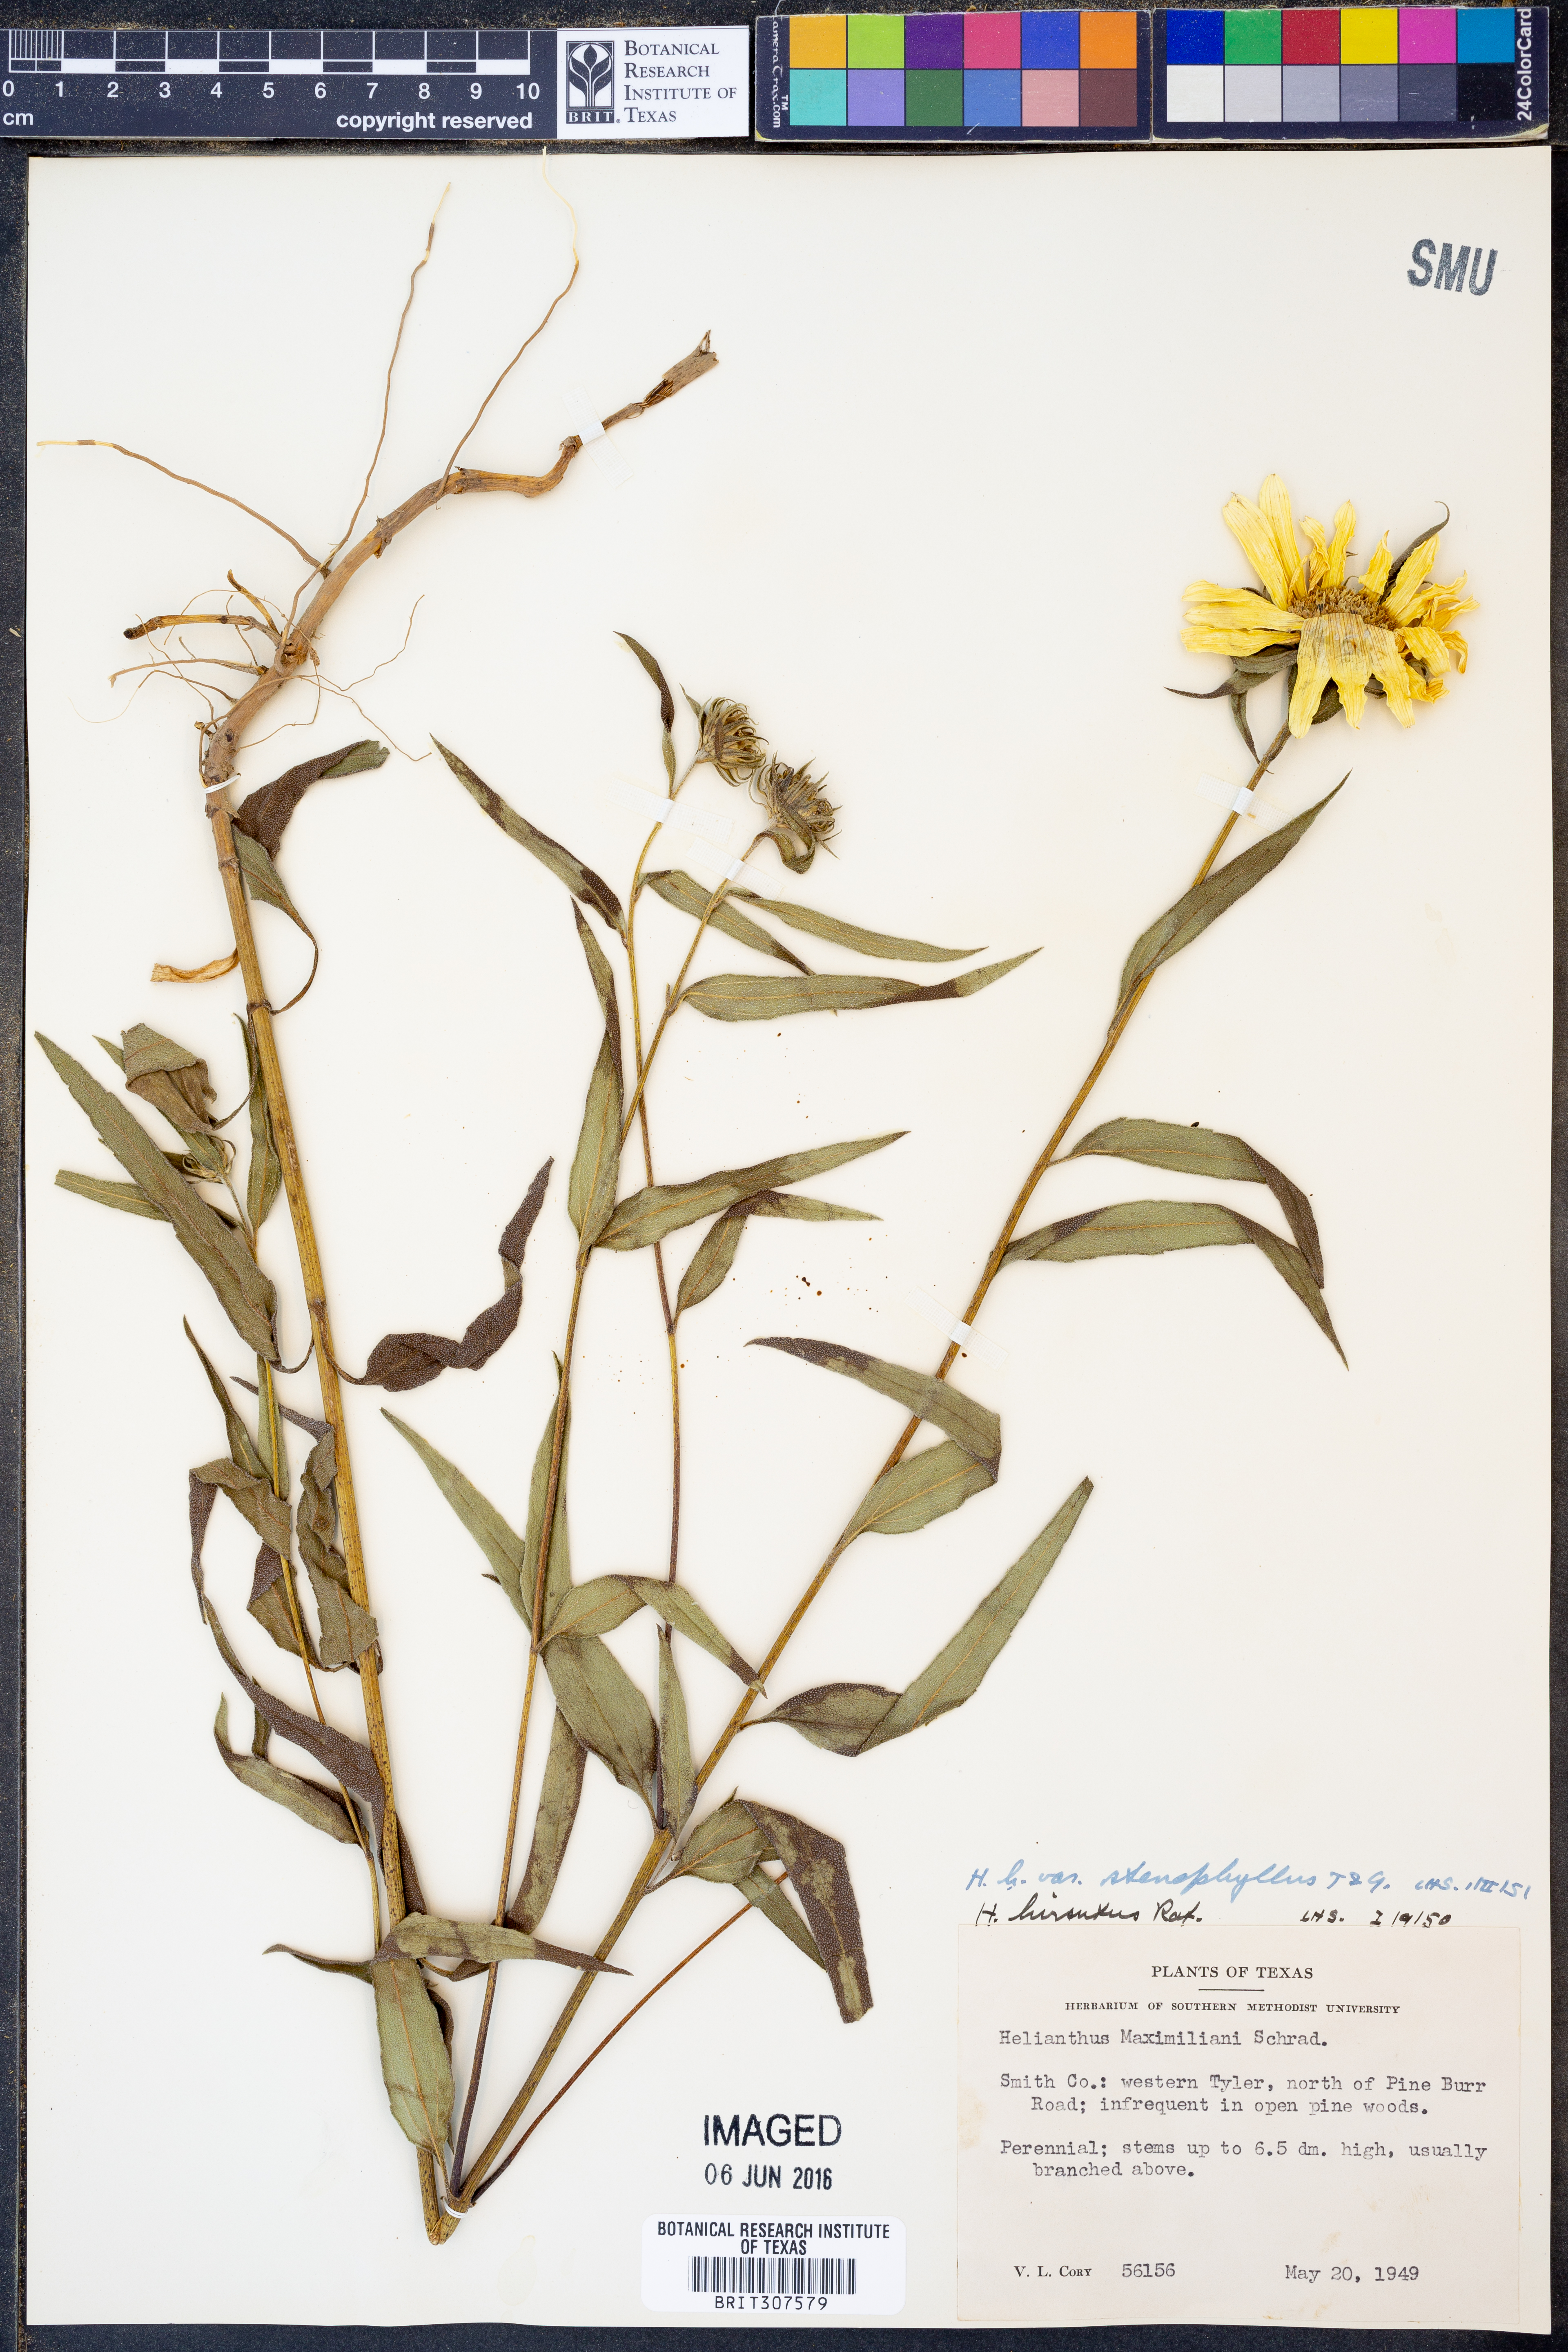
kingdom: Plantae
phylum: Tracheophyta
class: Magnoliopsida
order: Asterales
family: Asteraceae
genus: Helianthus
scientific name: Helianthus hirsutus
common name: Hairy sunflower
